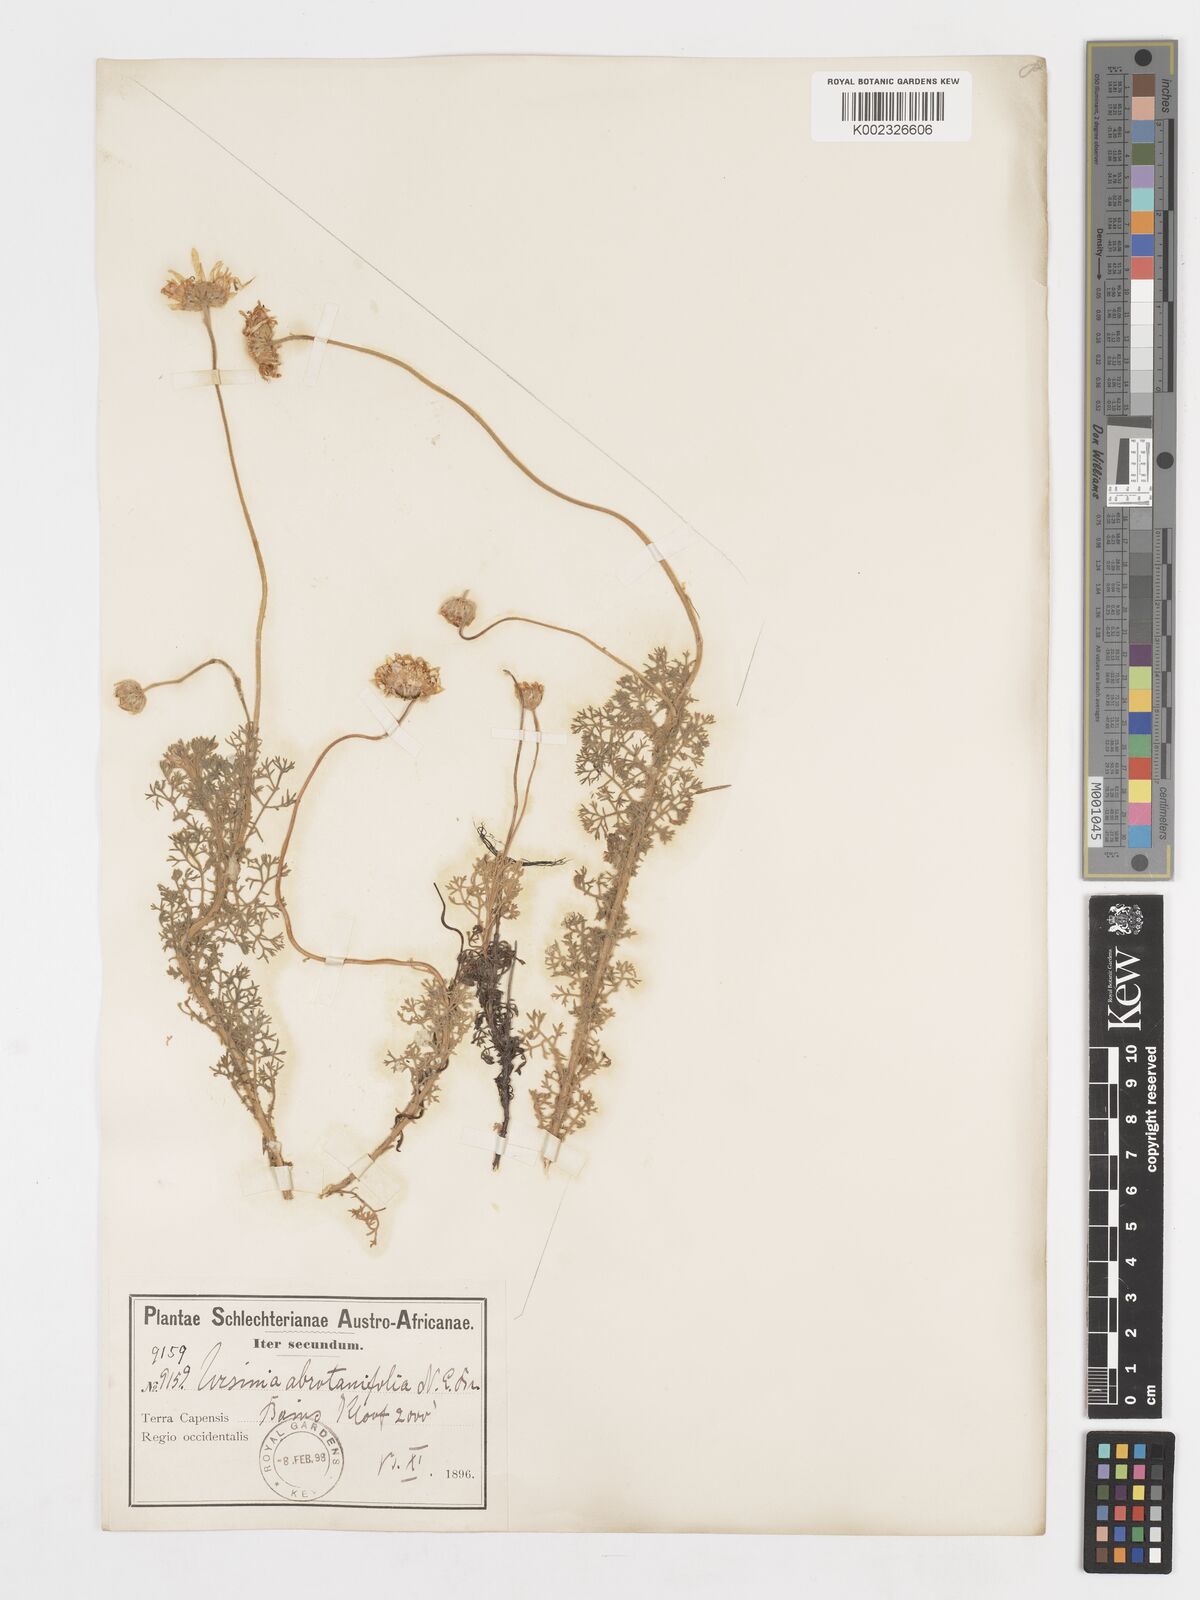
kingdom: Plantae
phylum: Tracheophyta
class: Magnoliopsida
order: Asterales
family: Asteraceae
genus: Ursinia
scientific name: Ursinia abrotanifolia
